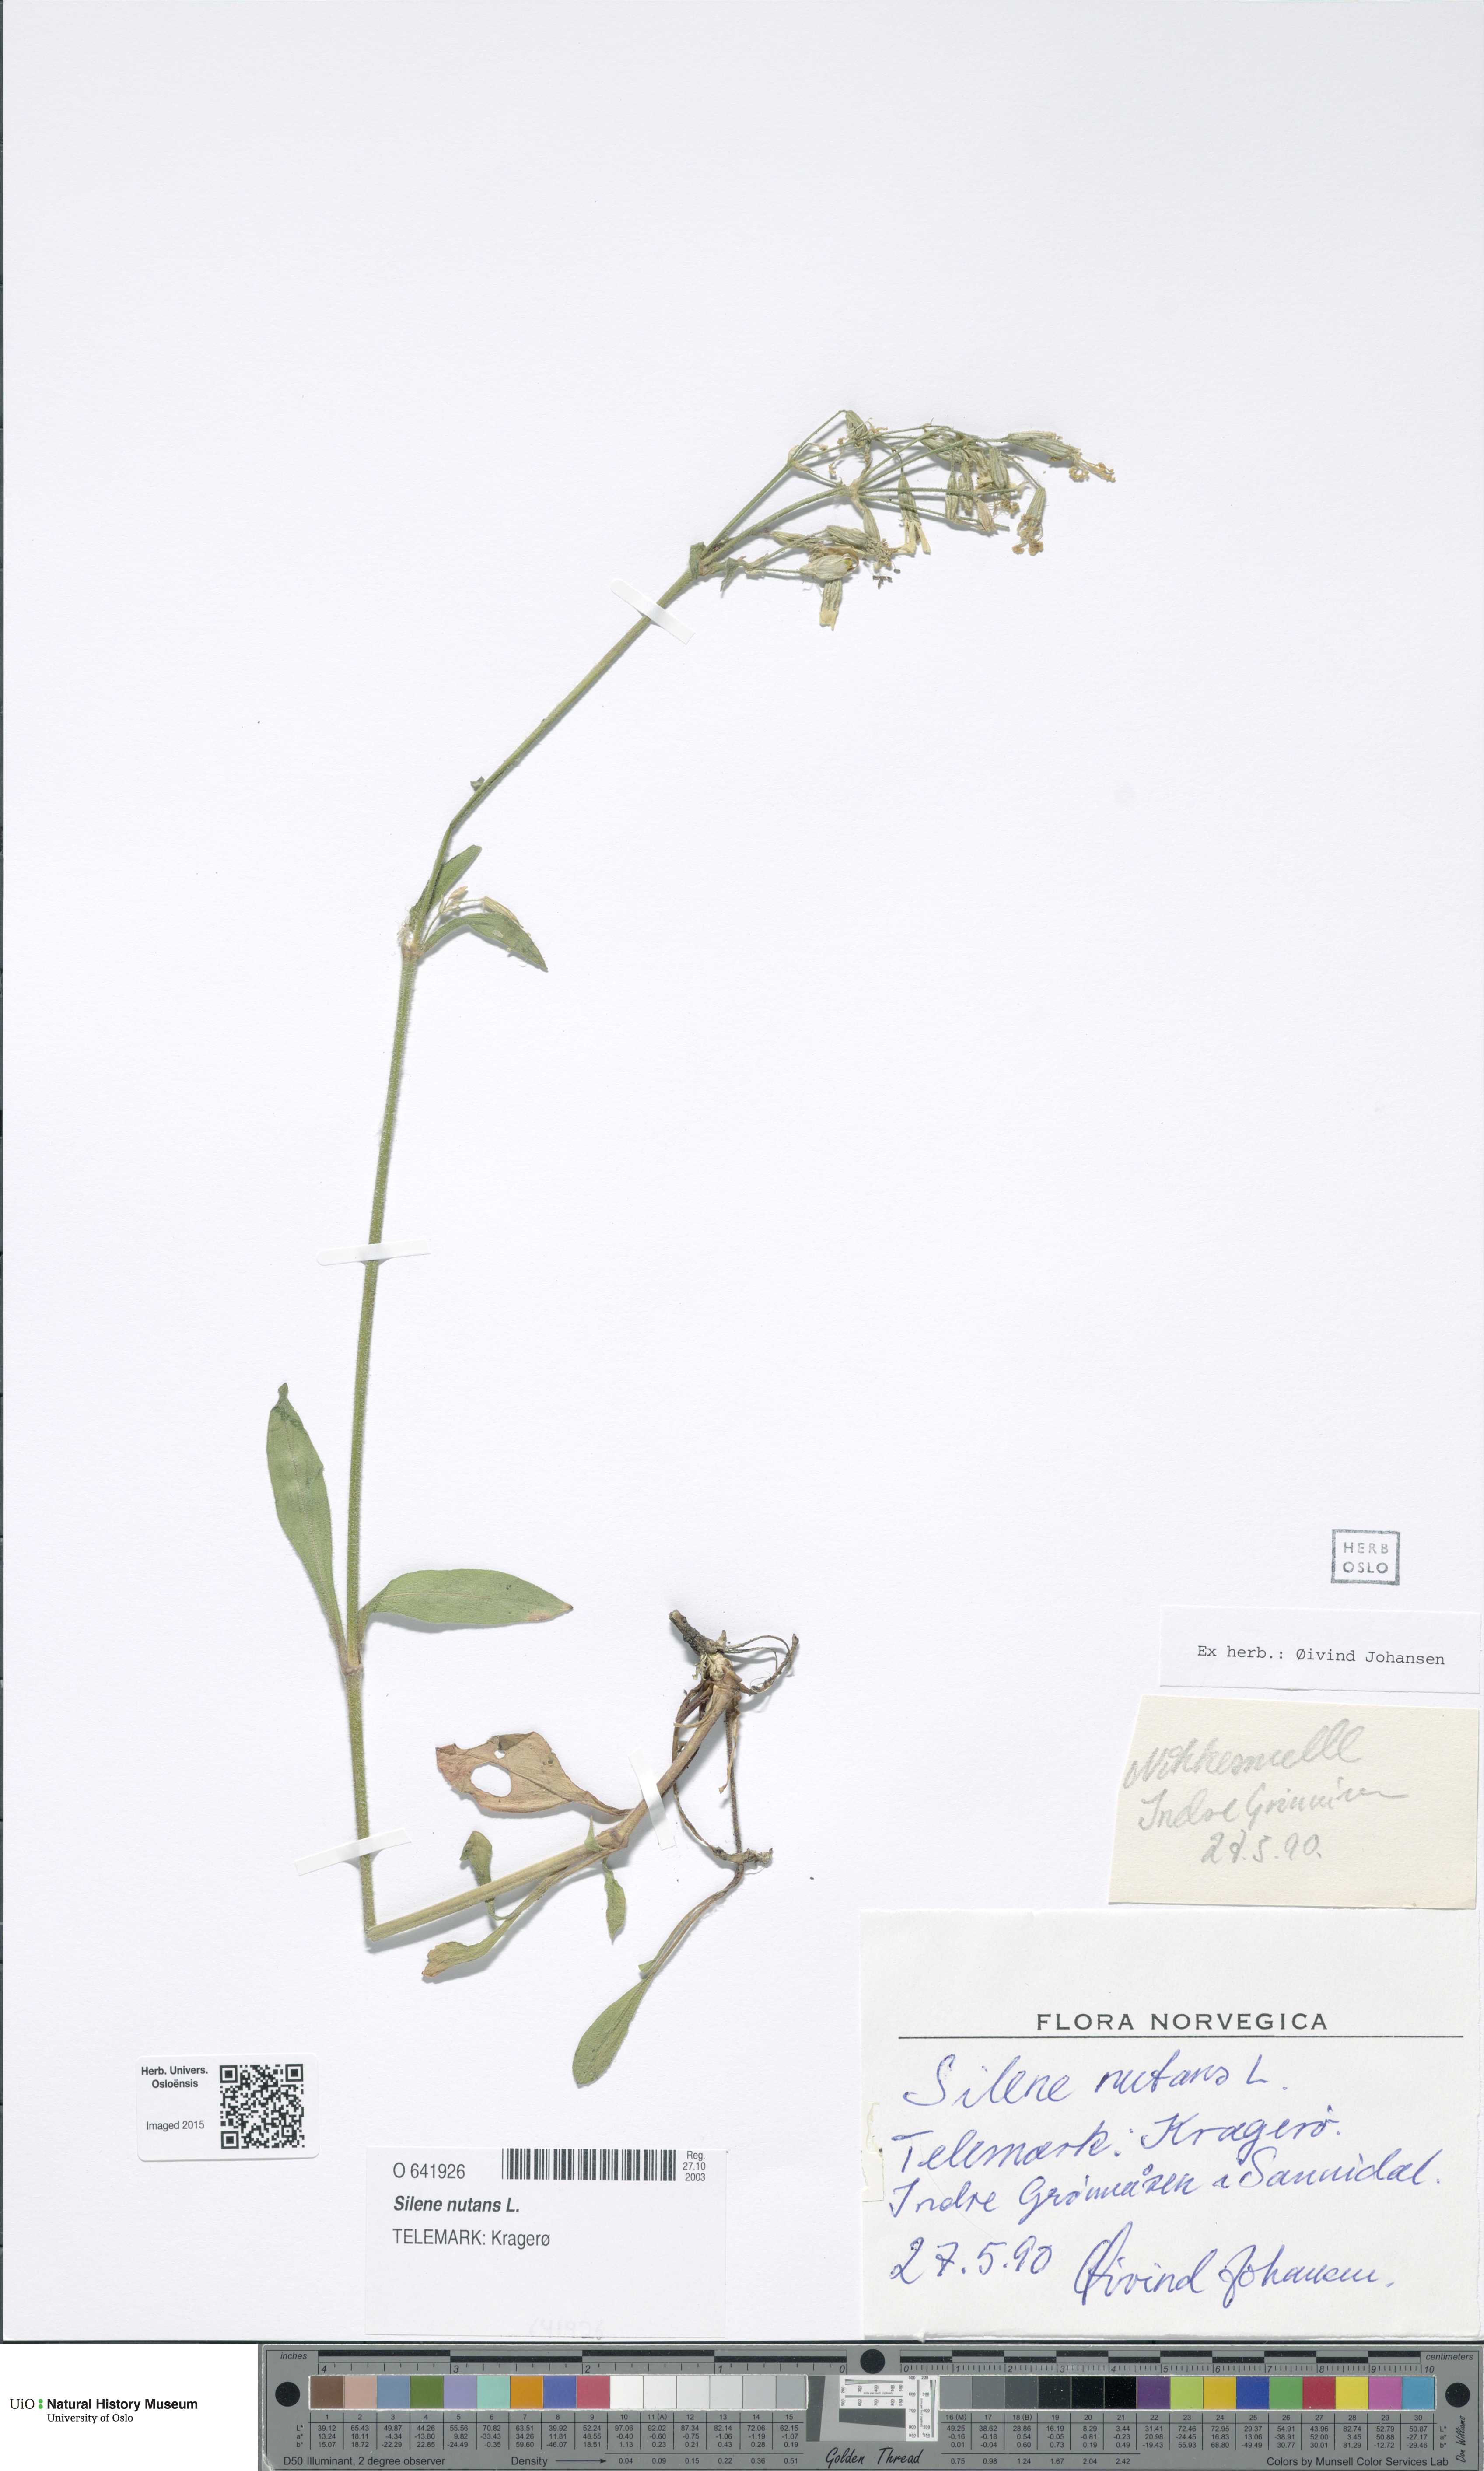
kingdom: Plantae
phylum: Tracheophyta
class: Magnoliopsida
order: Caryophyllales
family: Caryophyllaceae
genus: Silene
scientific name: Silene nutans
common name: Nottingham catchfly
